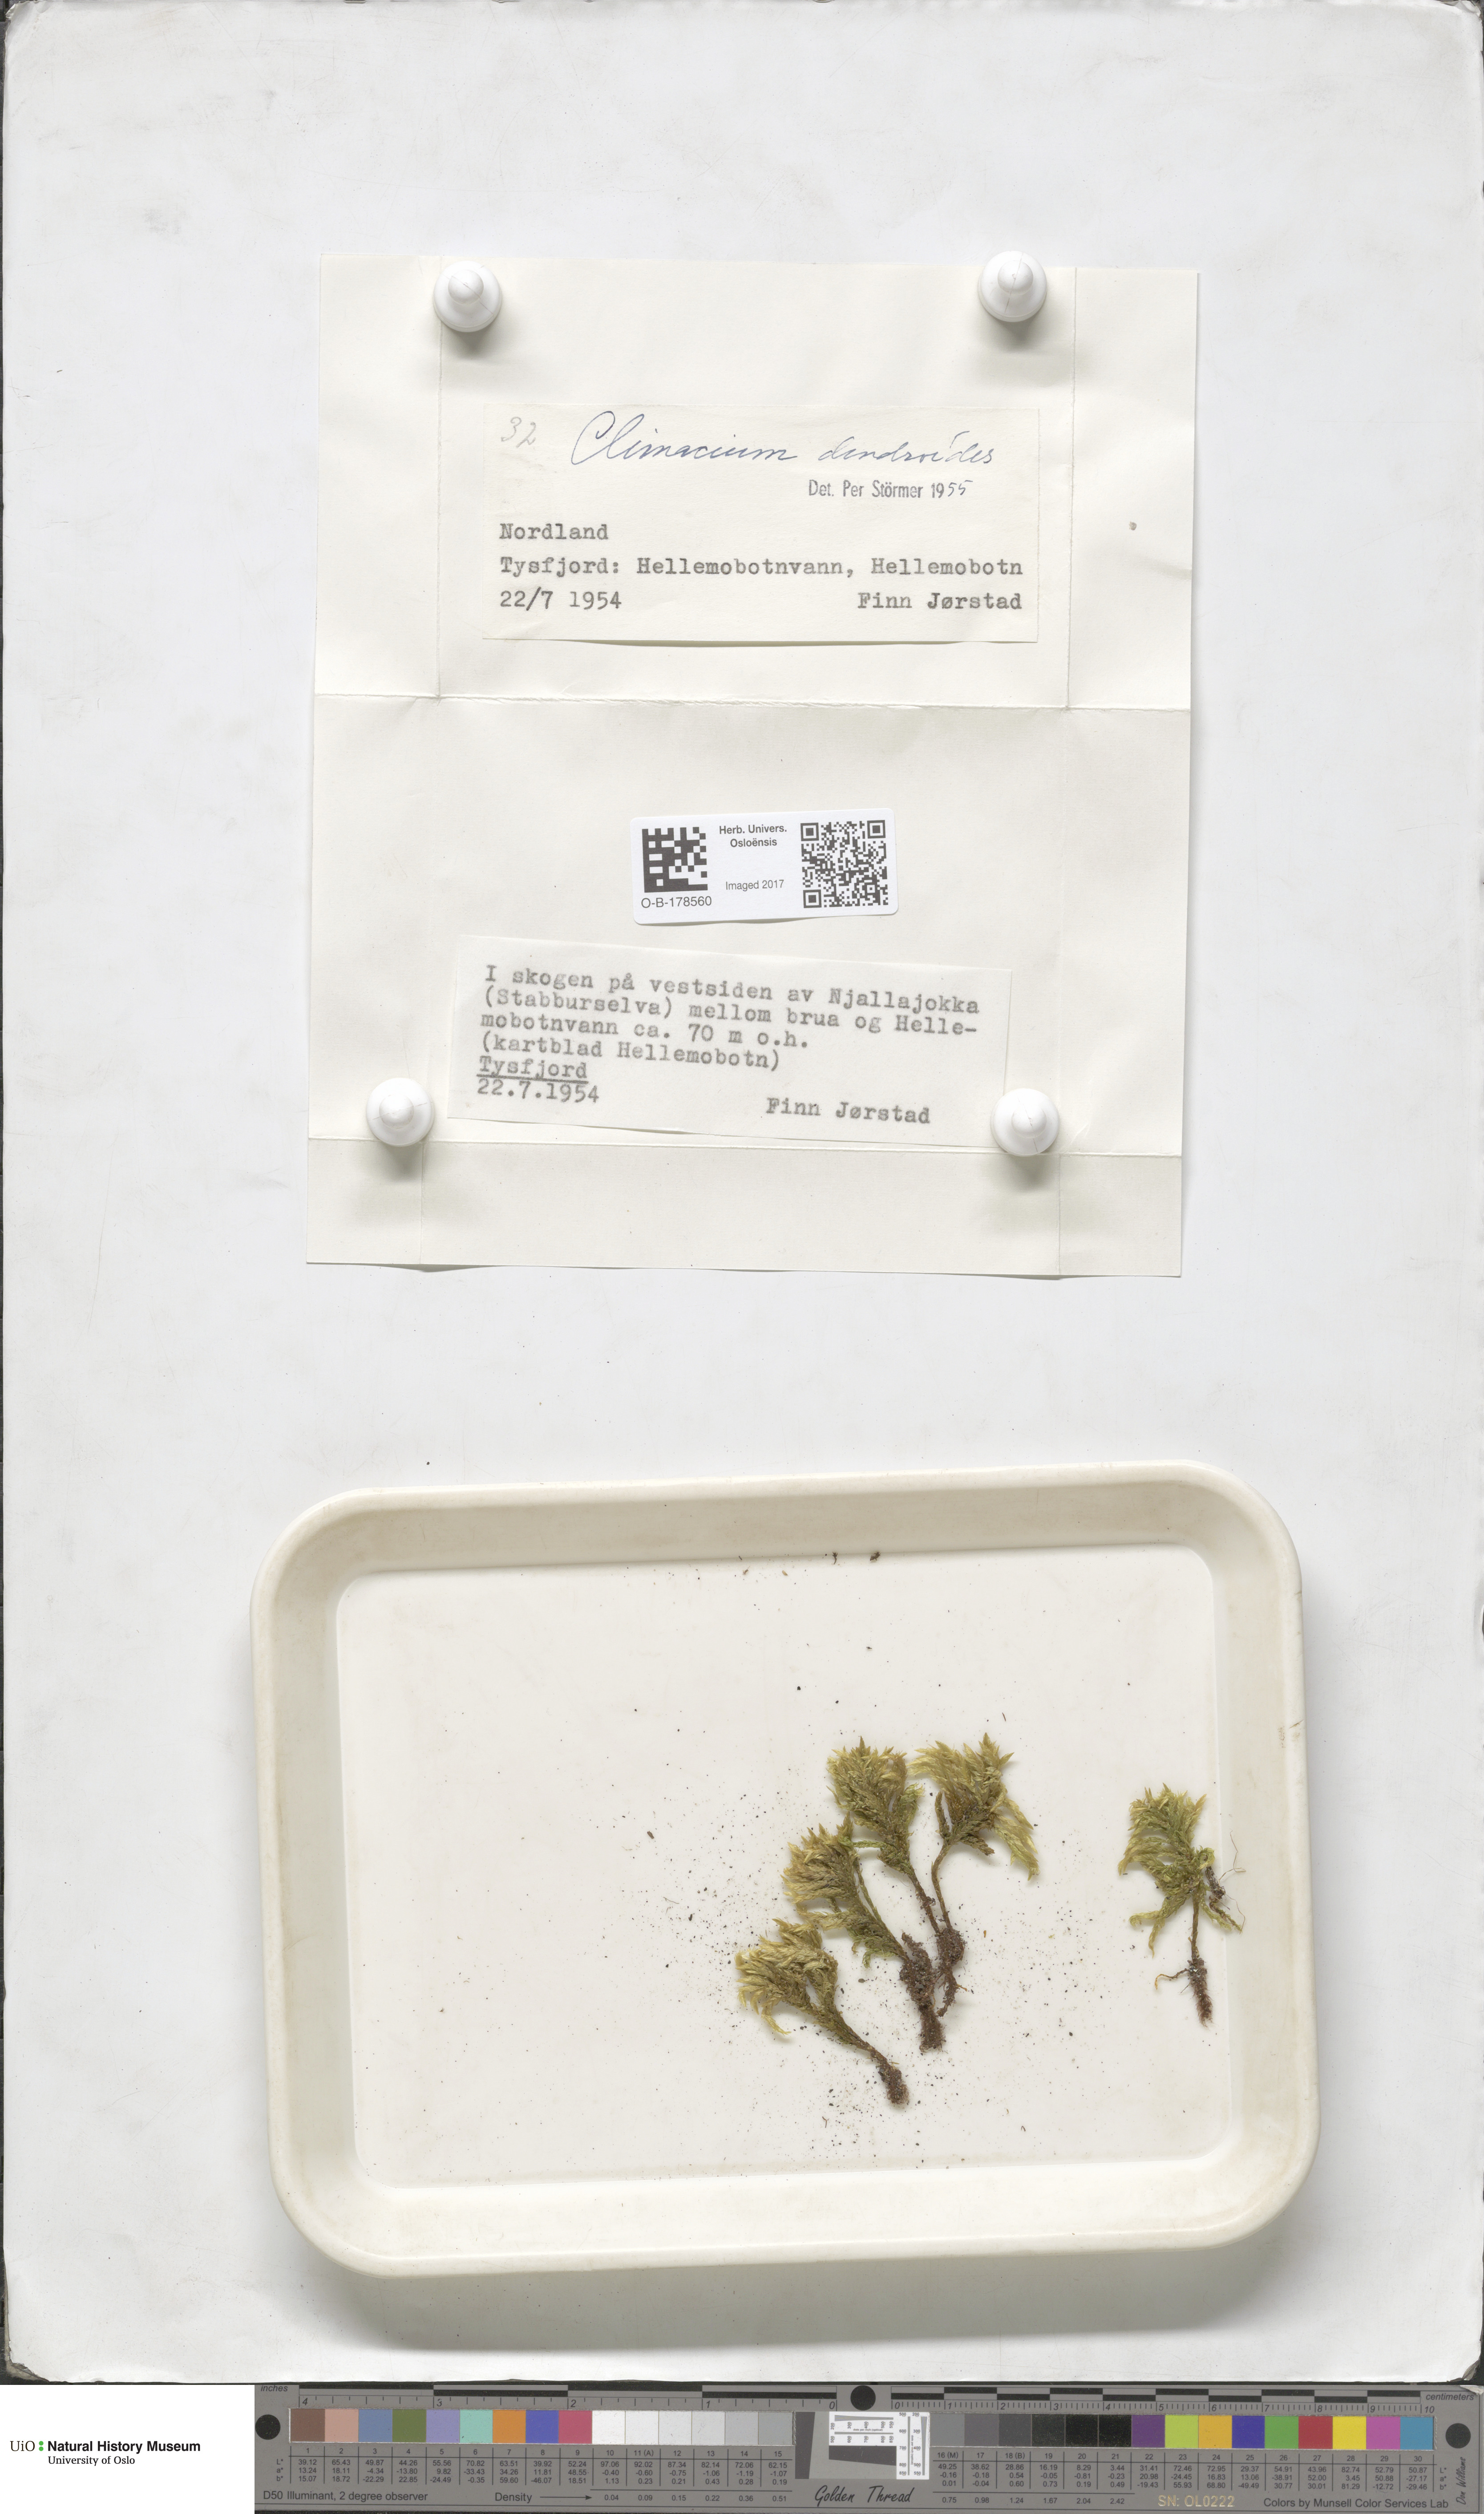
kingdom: Plantae
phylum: Bryophyta
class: Bryopsida
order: Hypnales
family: Climaciaceae
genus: Climacium
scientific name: Climacium dendroides
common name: Northern tree moss
